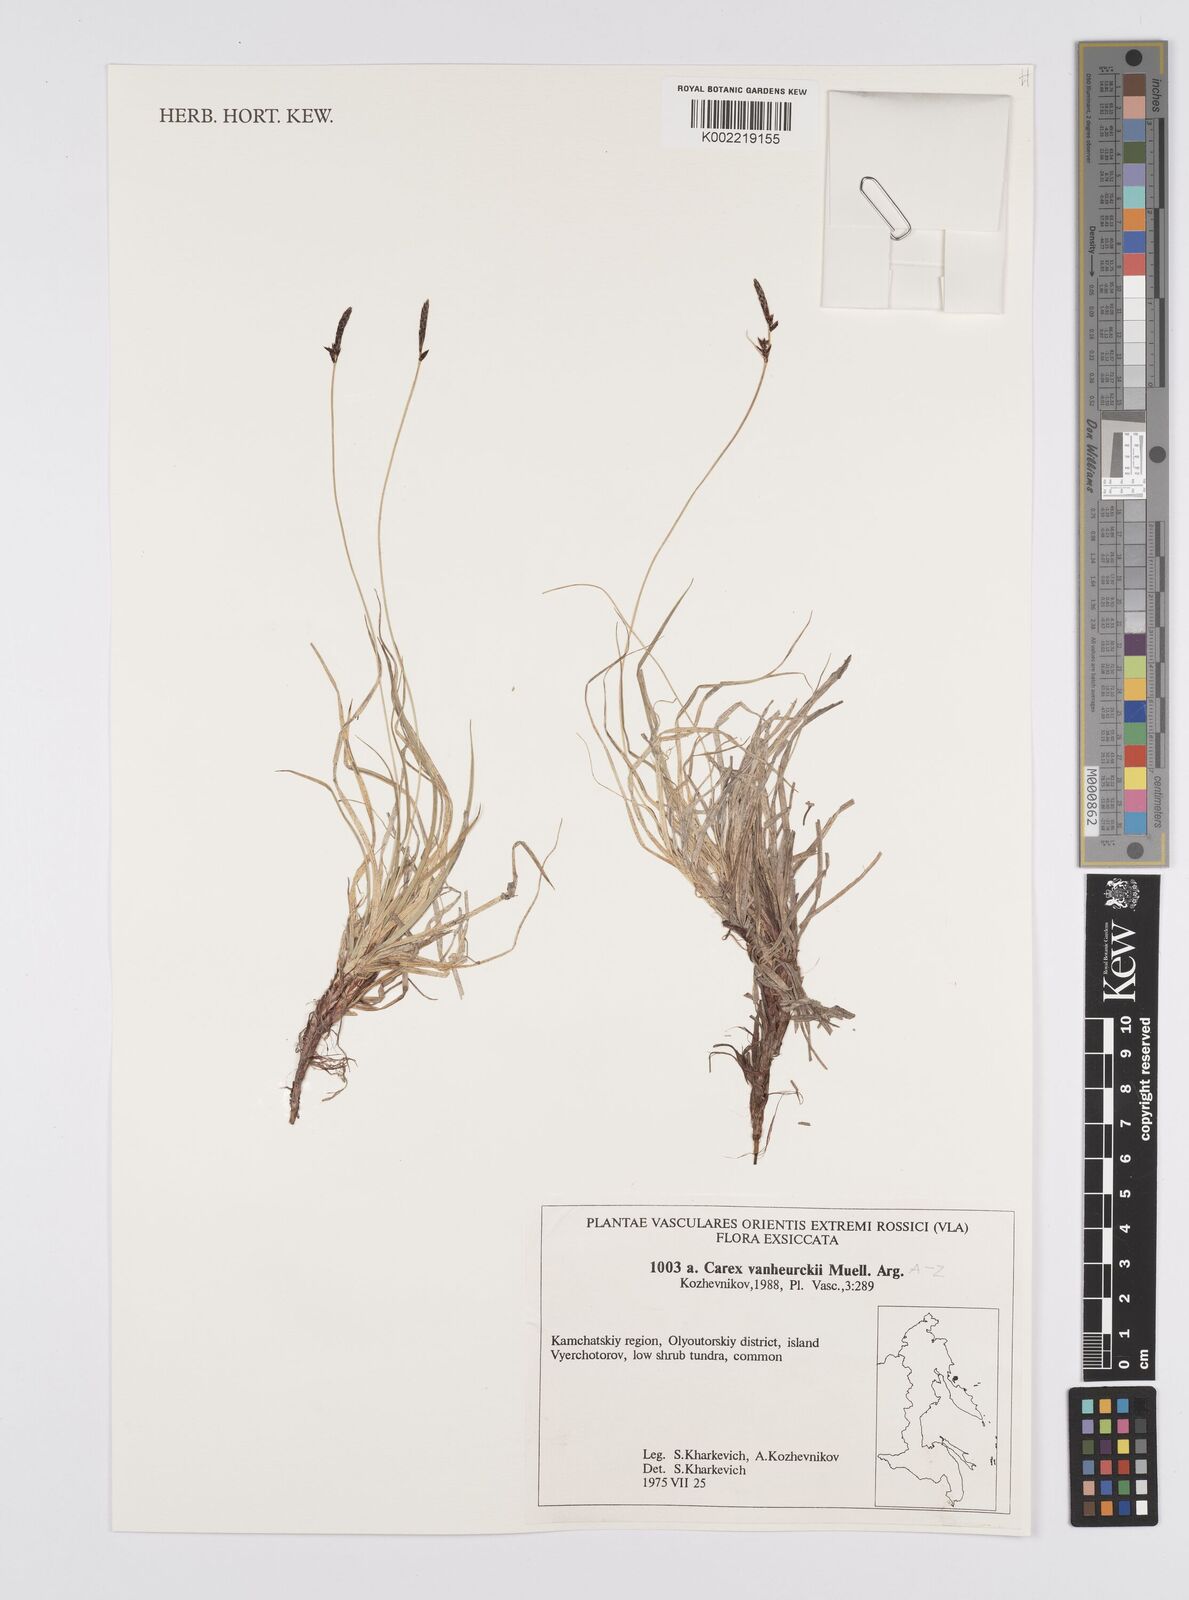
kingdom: Plantae
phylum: Tracheophyta
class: Liliopsida
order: Poales
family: Cyperaceae
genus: Carex
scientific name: Carex vanheurckii
